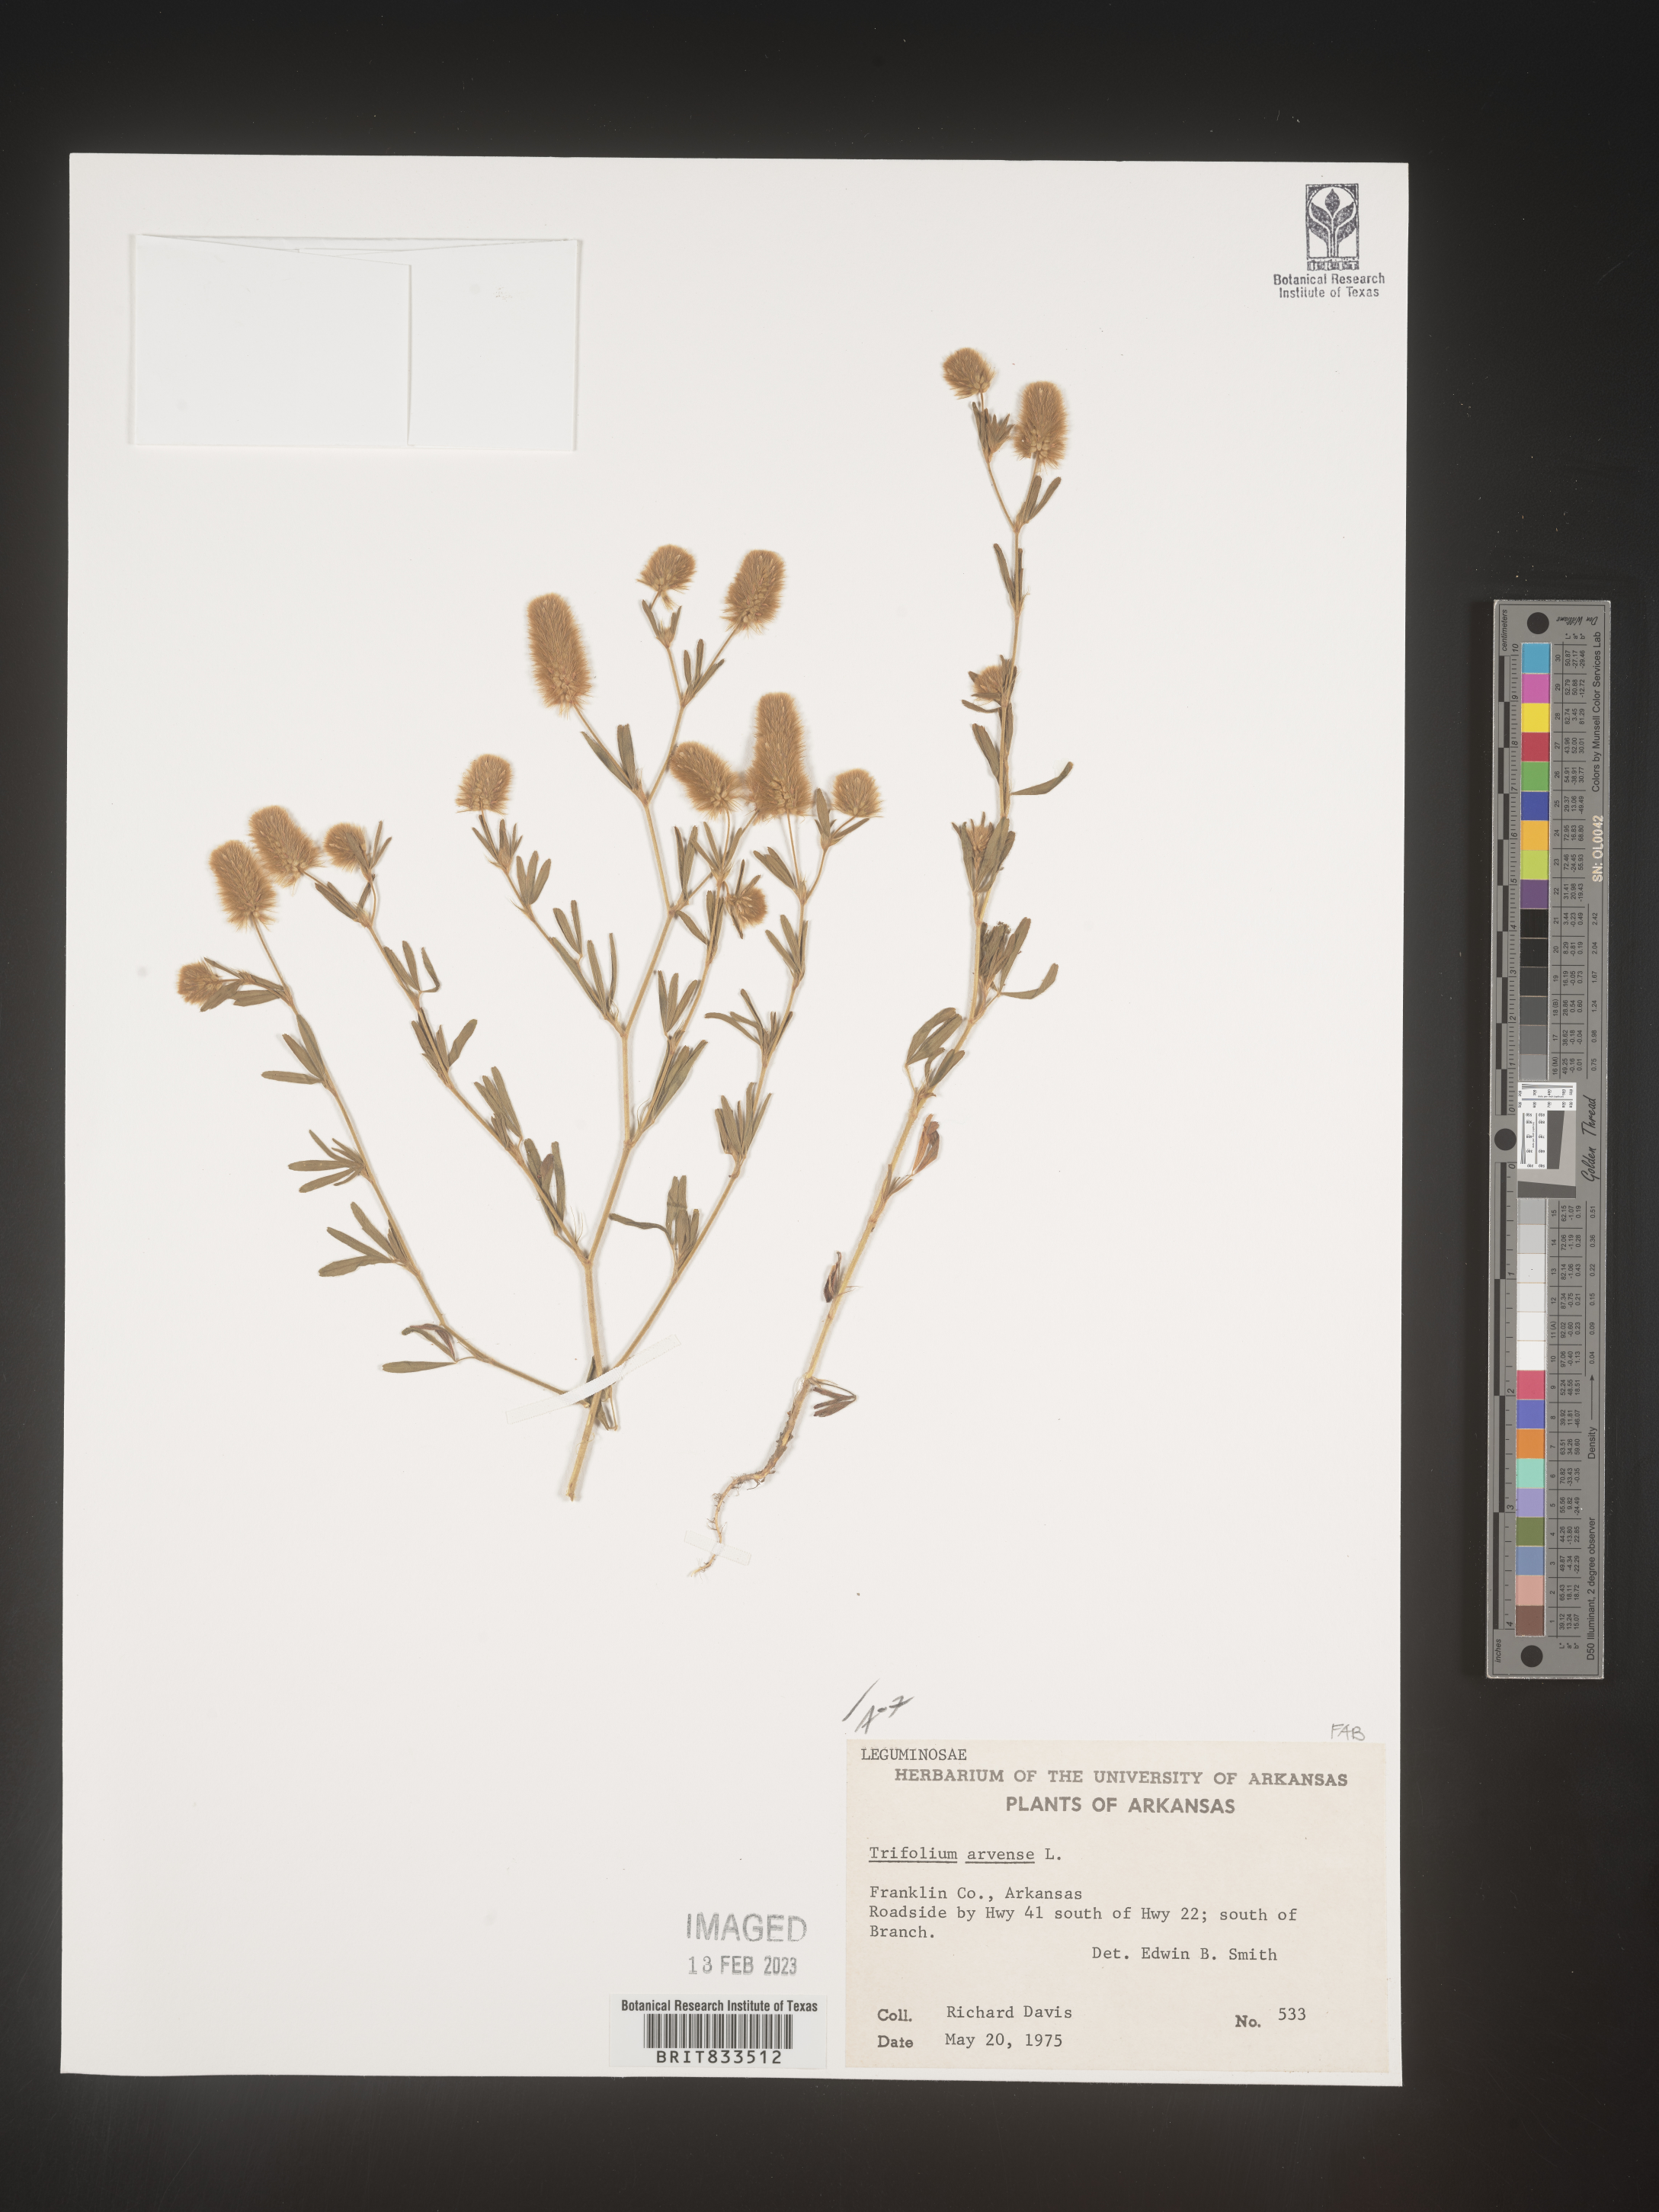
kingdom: Plantae
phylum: Tracheophyta
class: Magnoliopsida
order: Fabales
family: Fabaceae
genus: Trifolium
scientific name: Trifolium arvense
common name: Hare's-foot clover
